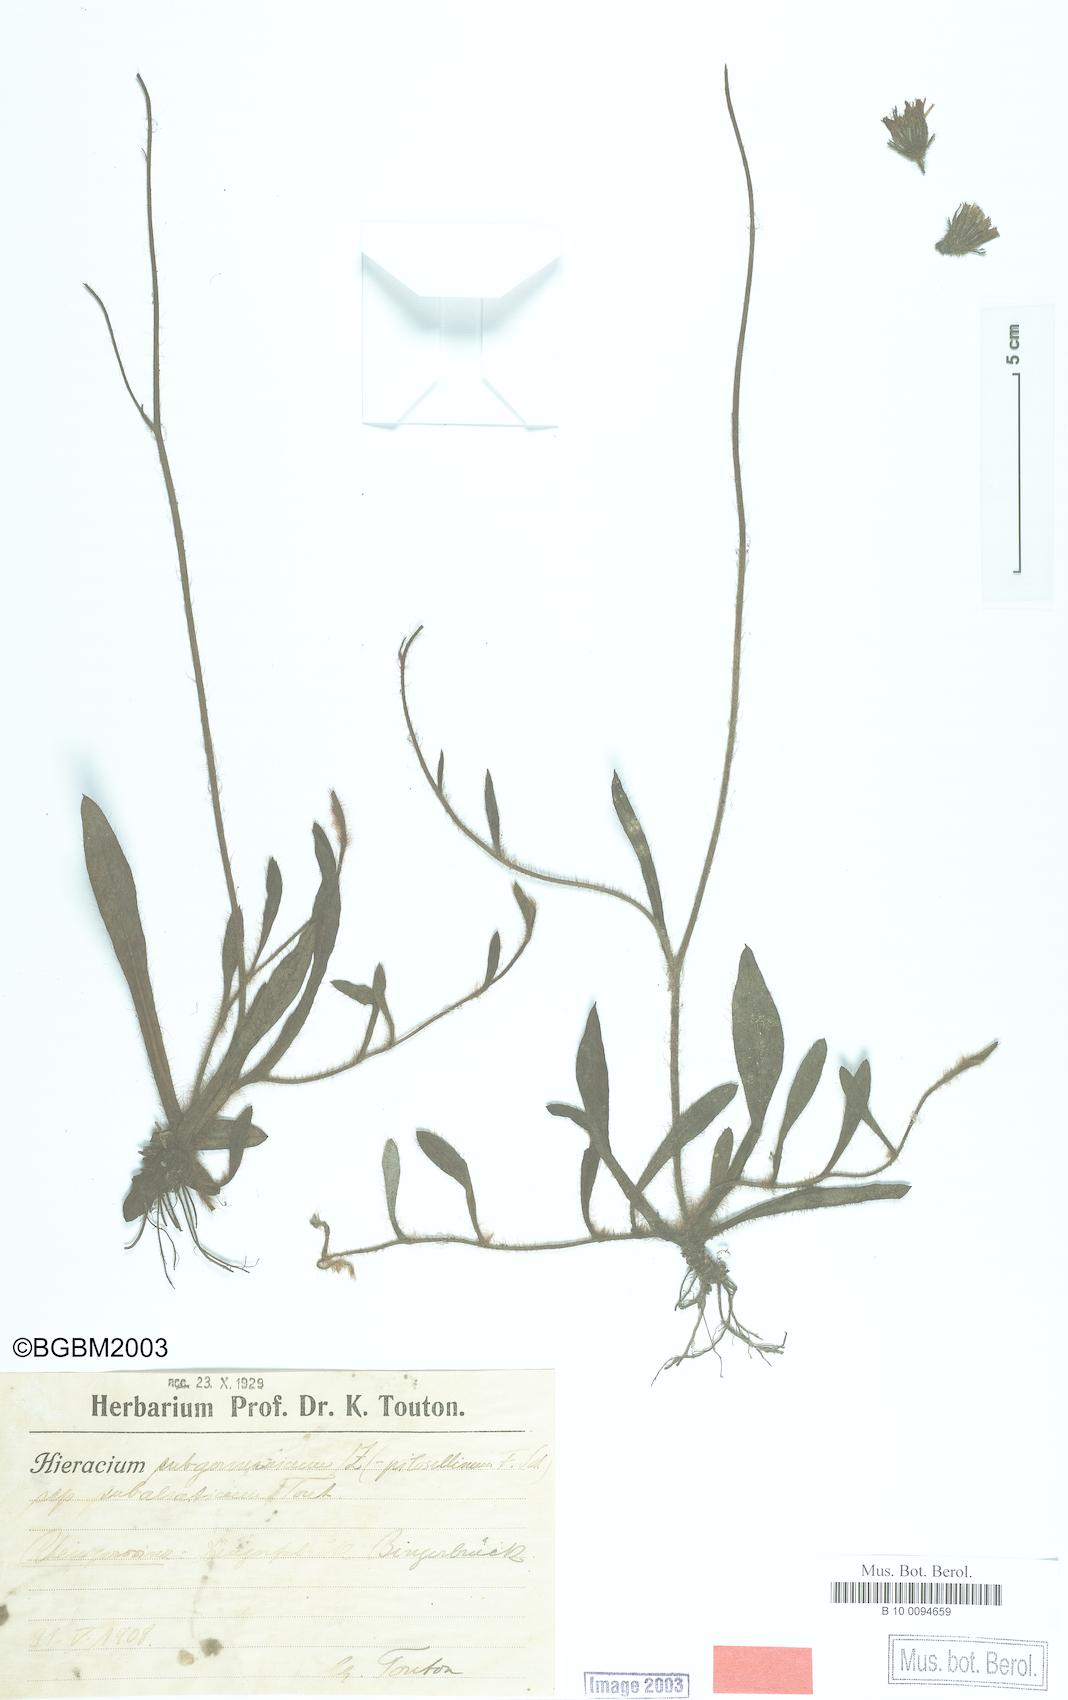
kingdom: Plantae
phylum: Tracheophyta
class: Magnoliopsida
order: Asterales
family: Asteraceae
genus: Pilosella
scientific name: Pilosella pilosellina
